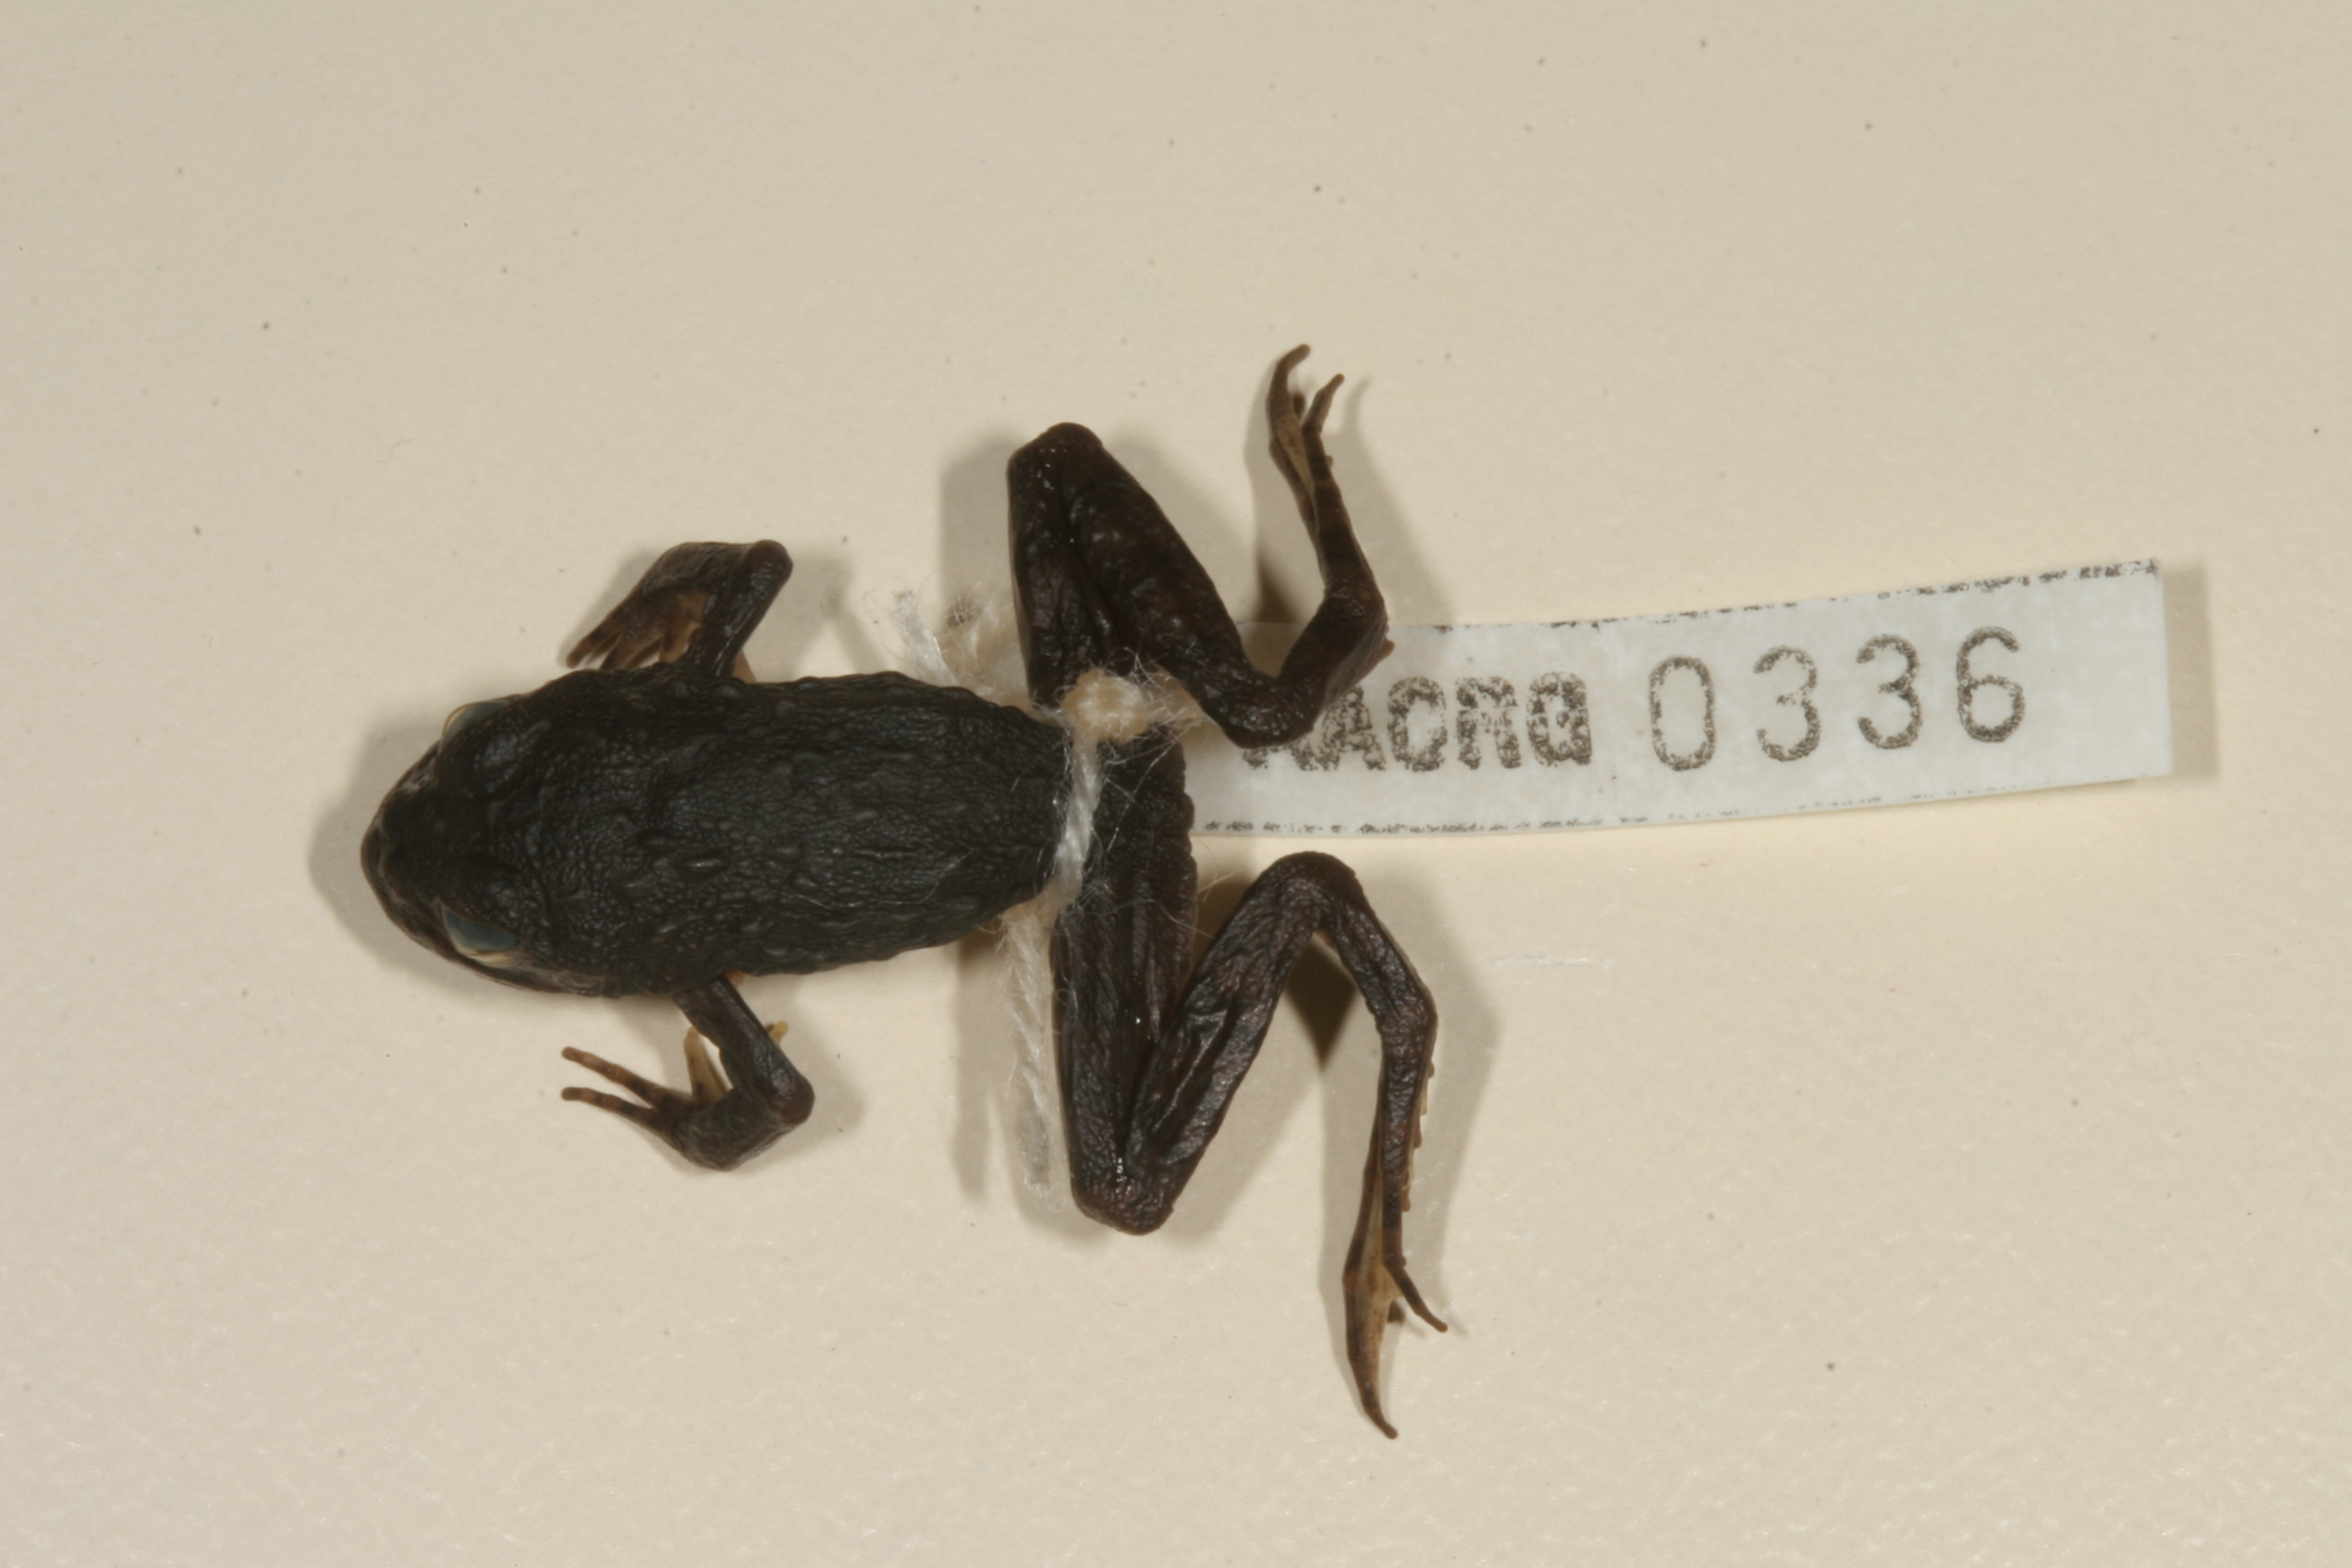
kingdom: Animalia
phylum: Chordata
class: Amphibia
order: Anura
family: Pyxicephalidae
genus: Amietia
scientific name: Amietia vertebralis
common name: Drakensberg stream frog
